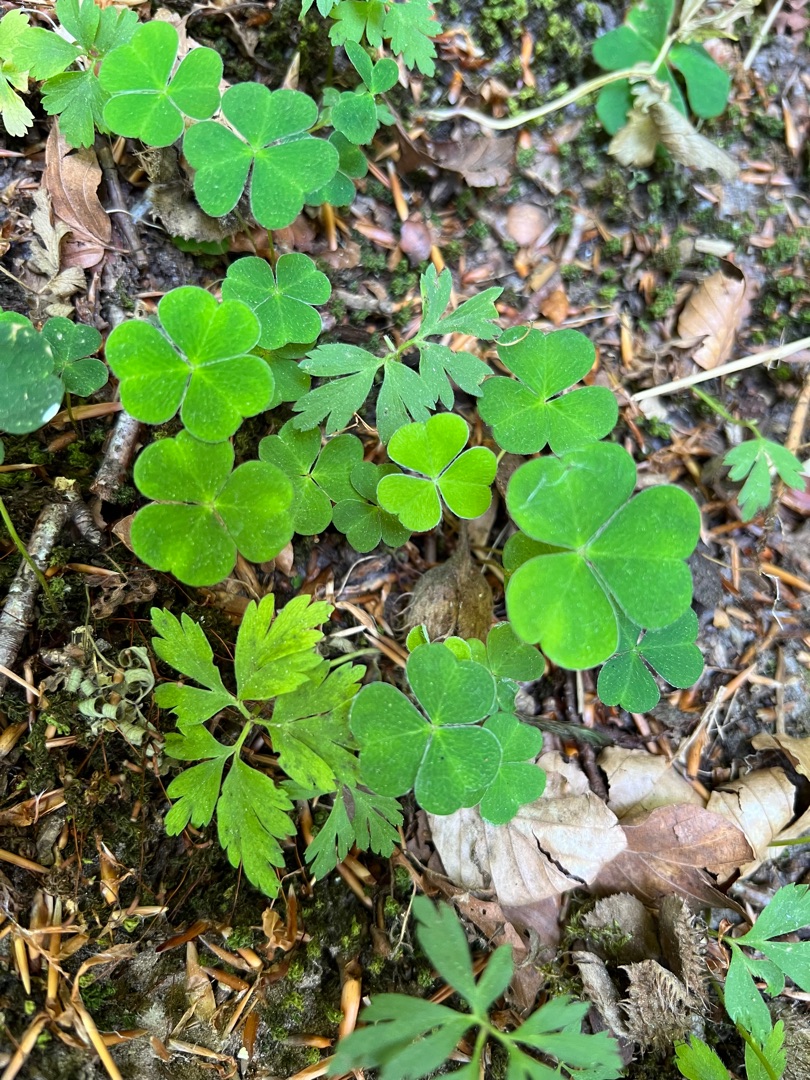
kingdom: Plantae
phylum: Tracheophyta
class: Magnoliopsida
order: Oxalidales
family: Oxalidaceae
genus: Oxalis
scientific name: Oxalis acetosella
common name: Skovsyre
